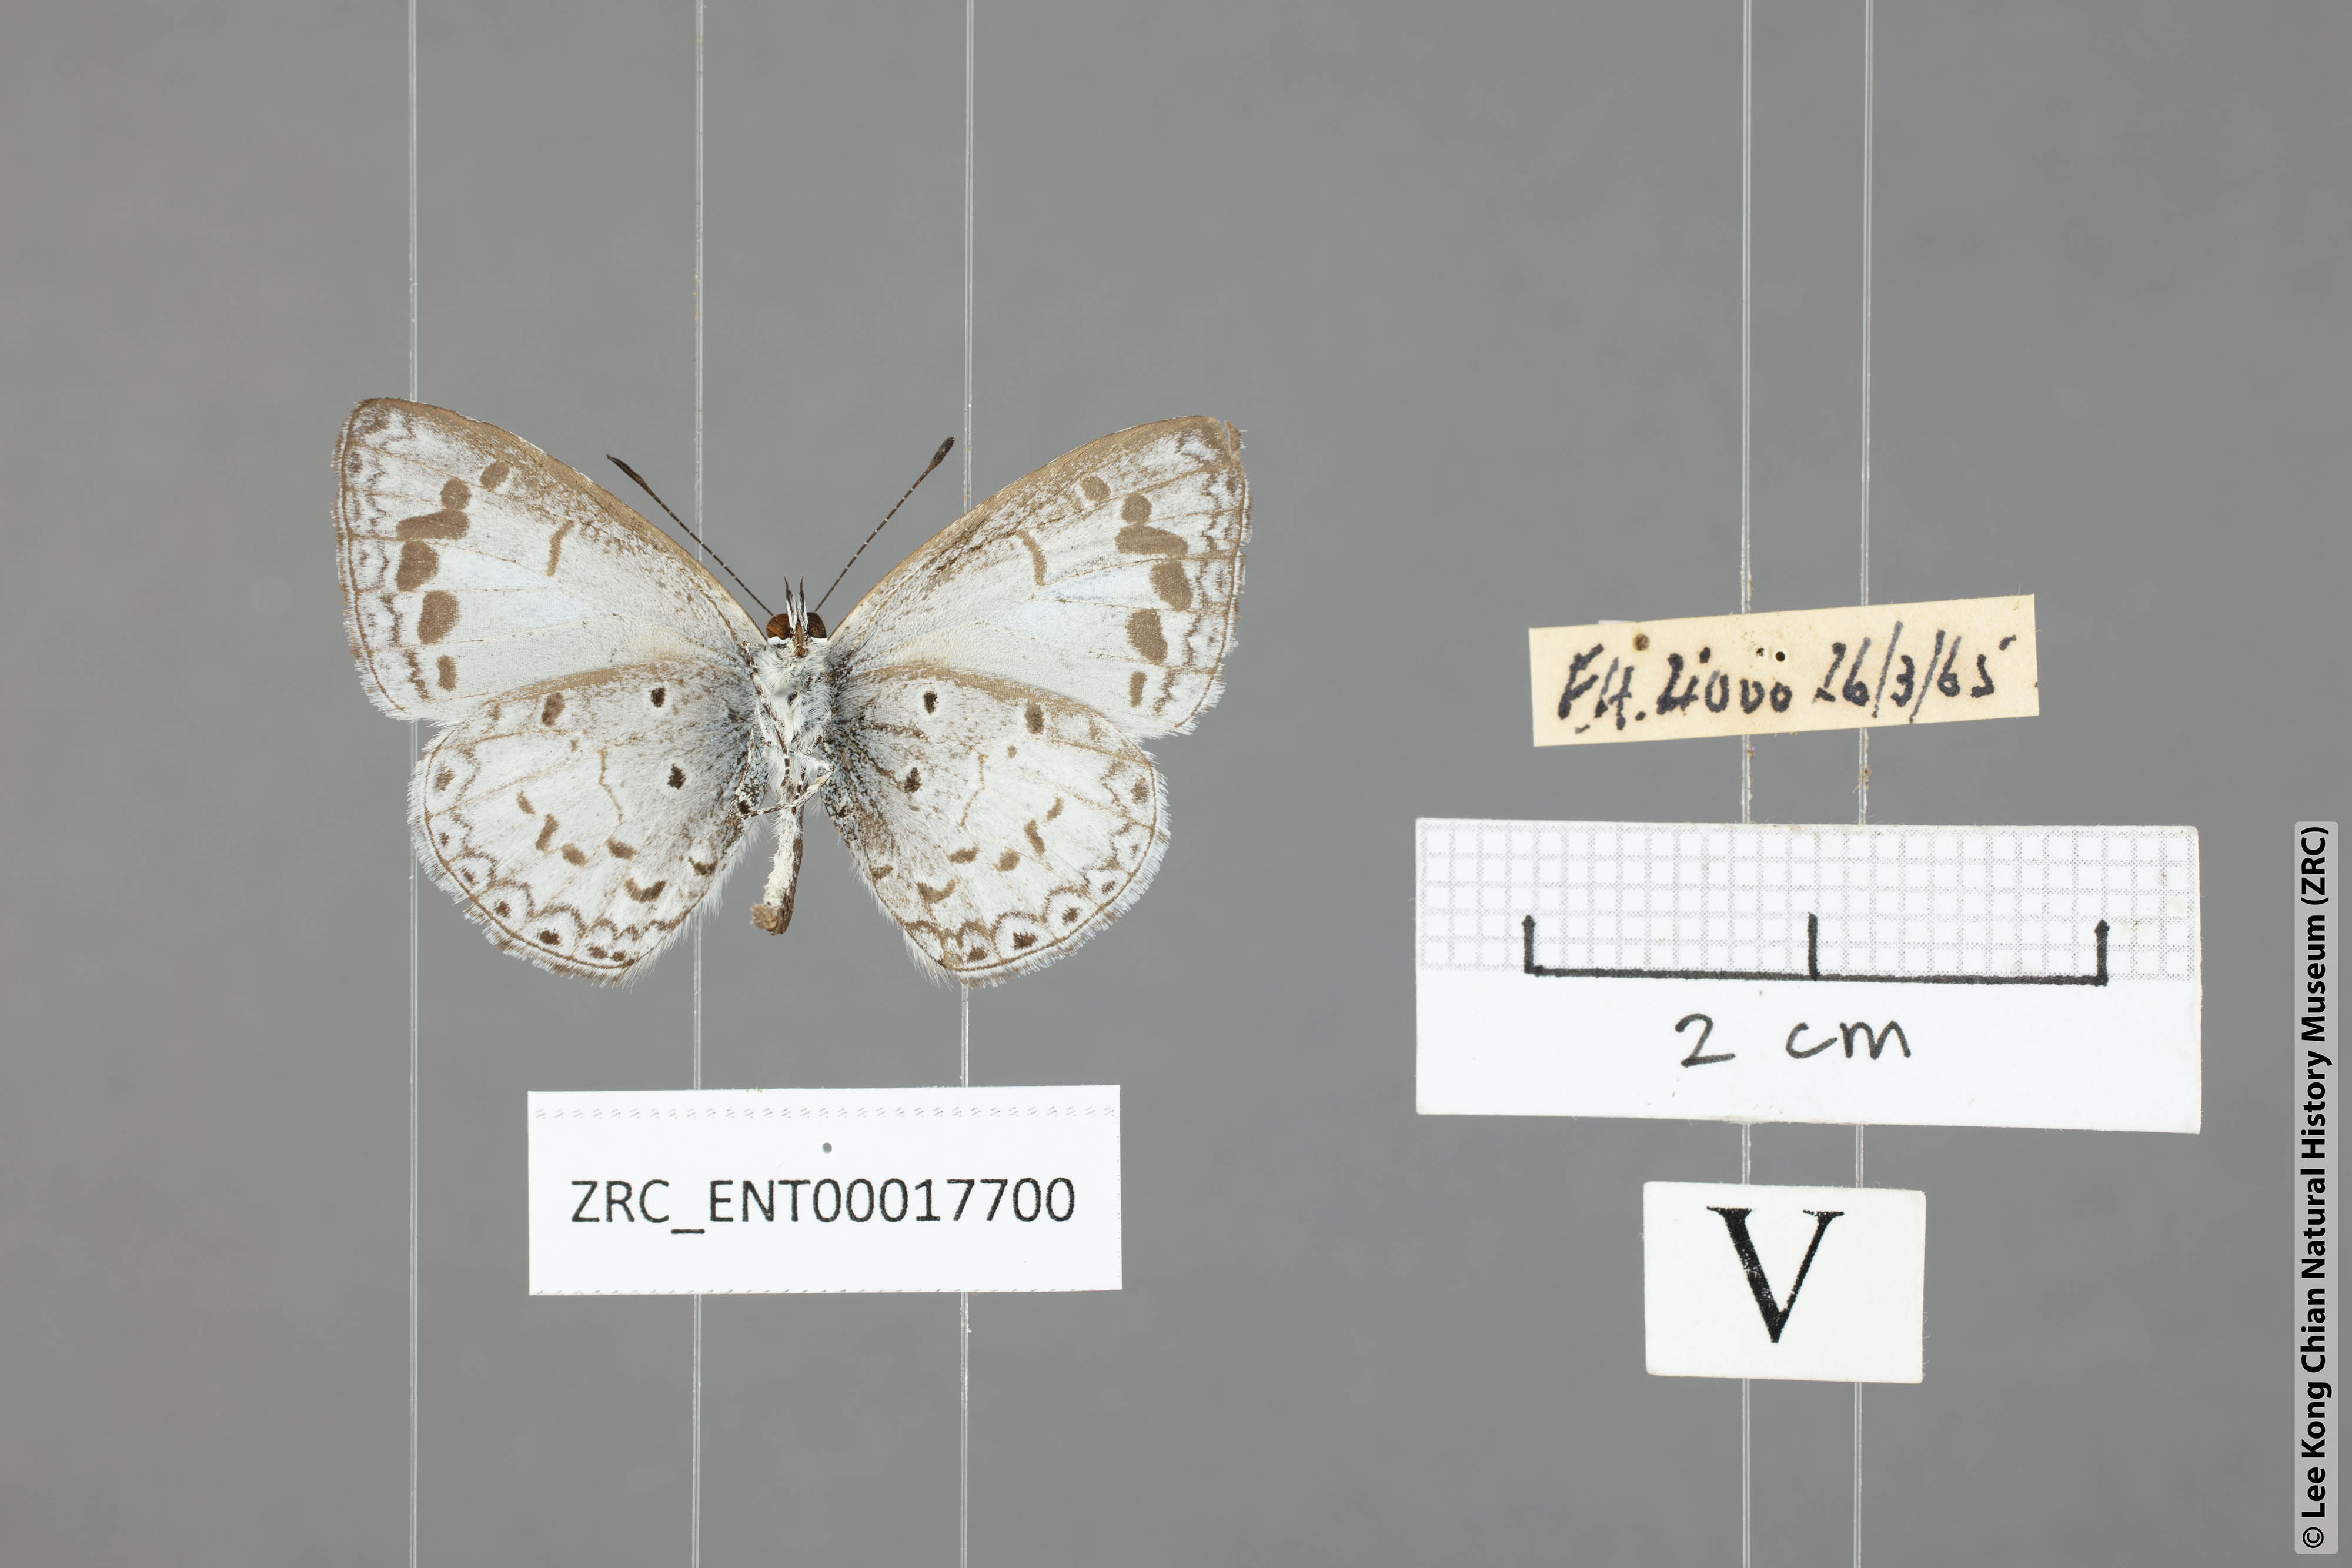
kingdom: Animalia
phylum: Arthropoda
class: Insecta
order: Lepidoptera
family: Lycaenidae
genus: Lycaenopsis
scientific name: Lycaenopsis marginata
